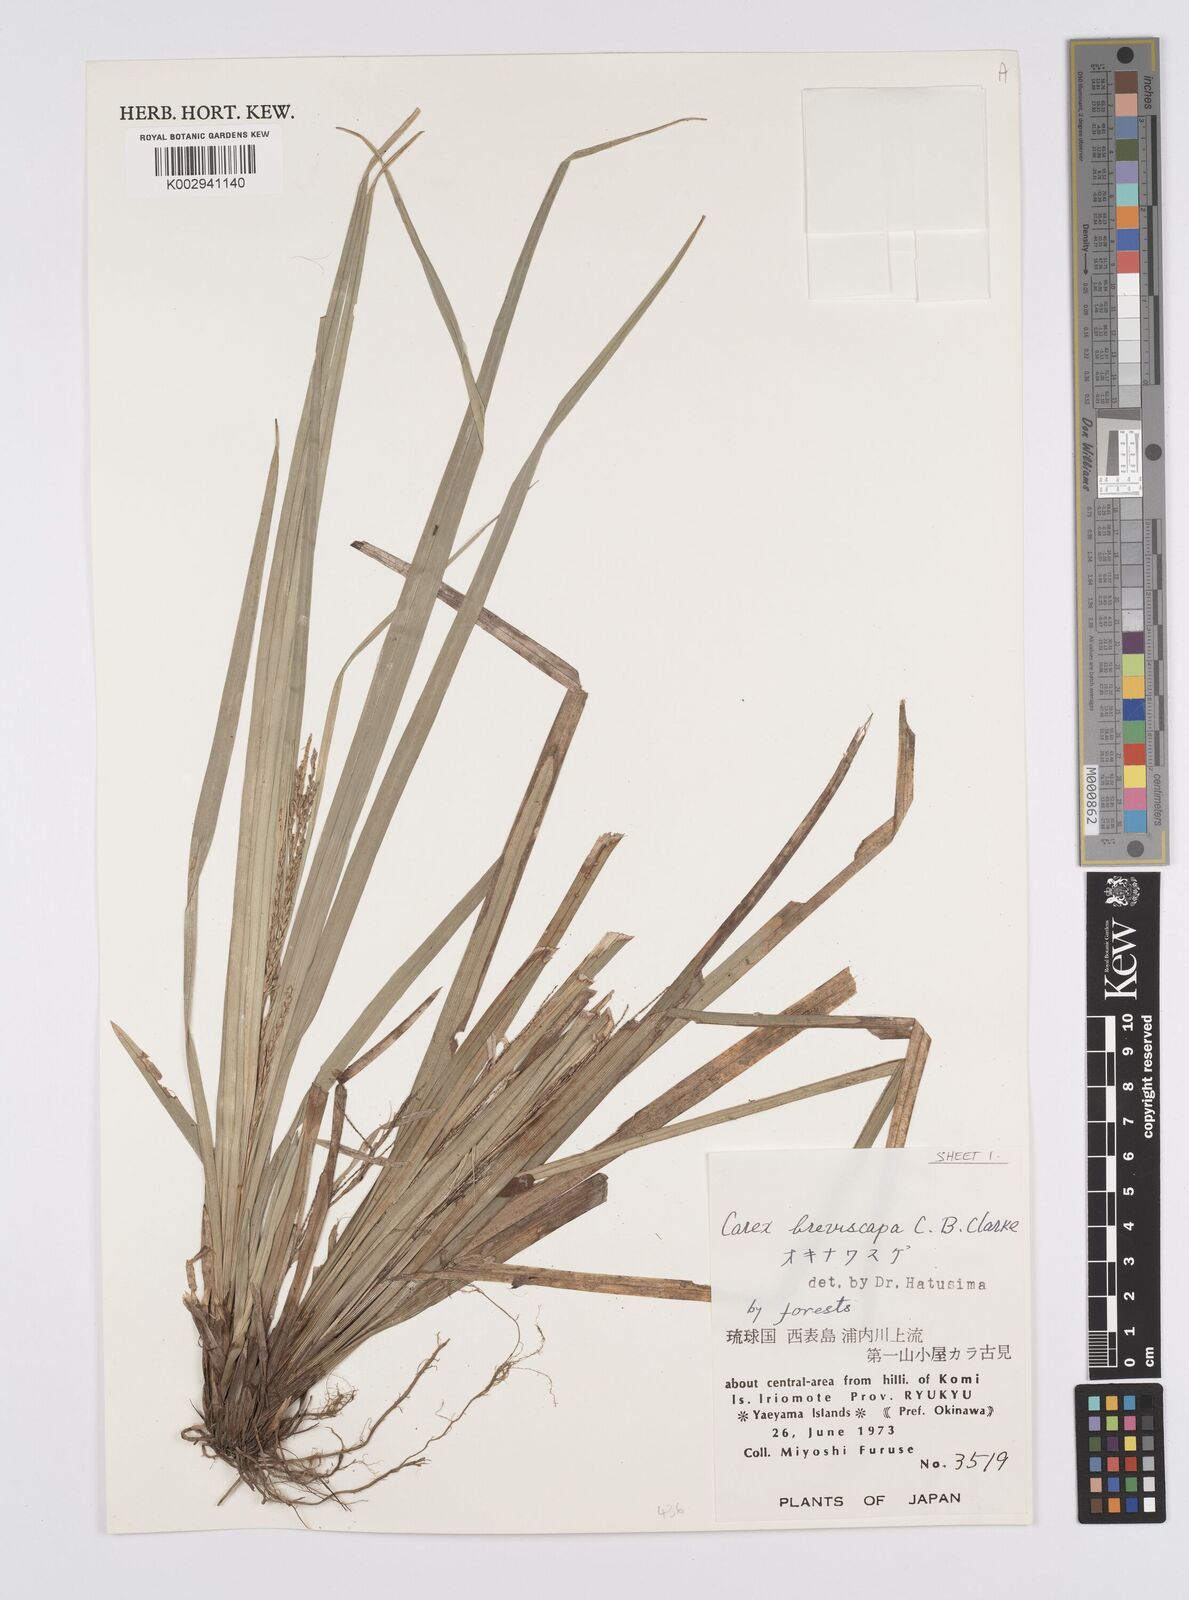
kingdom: Plantae
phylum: Tracheophyta
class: Liliopsida
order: Poales
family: Cyperaceae
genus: Carex
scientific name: Carex breviscapa
